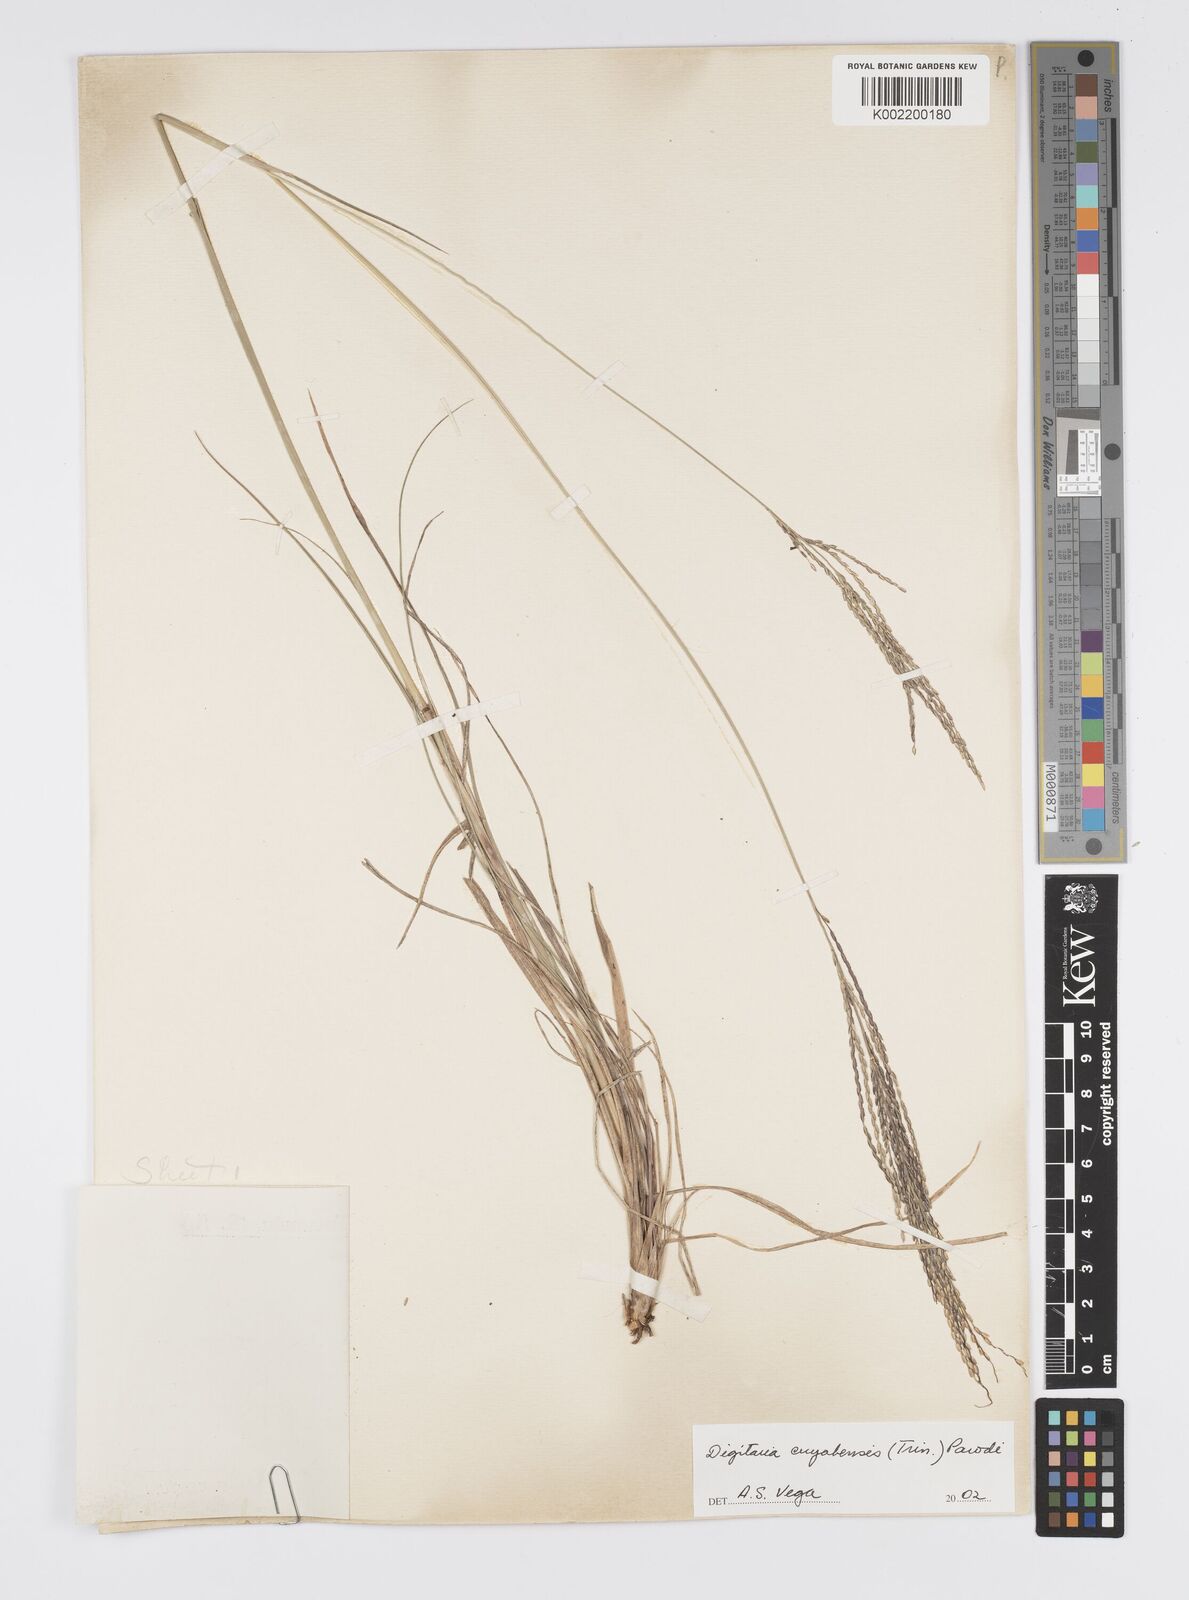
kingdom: Plantae
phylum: Tracheophyta
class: Liliopsida
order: Poales
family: Poaceae
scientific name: Poaceae
